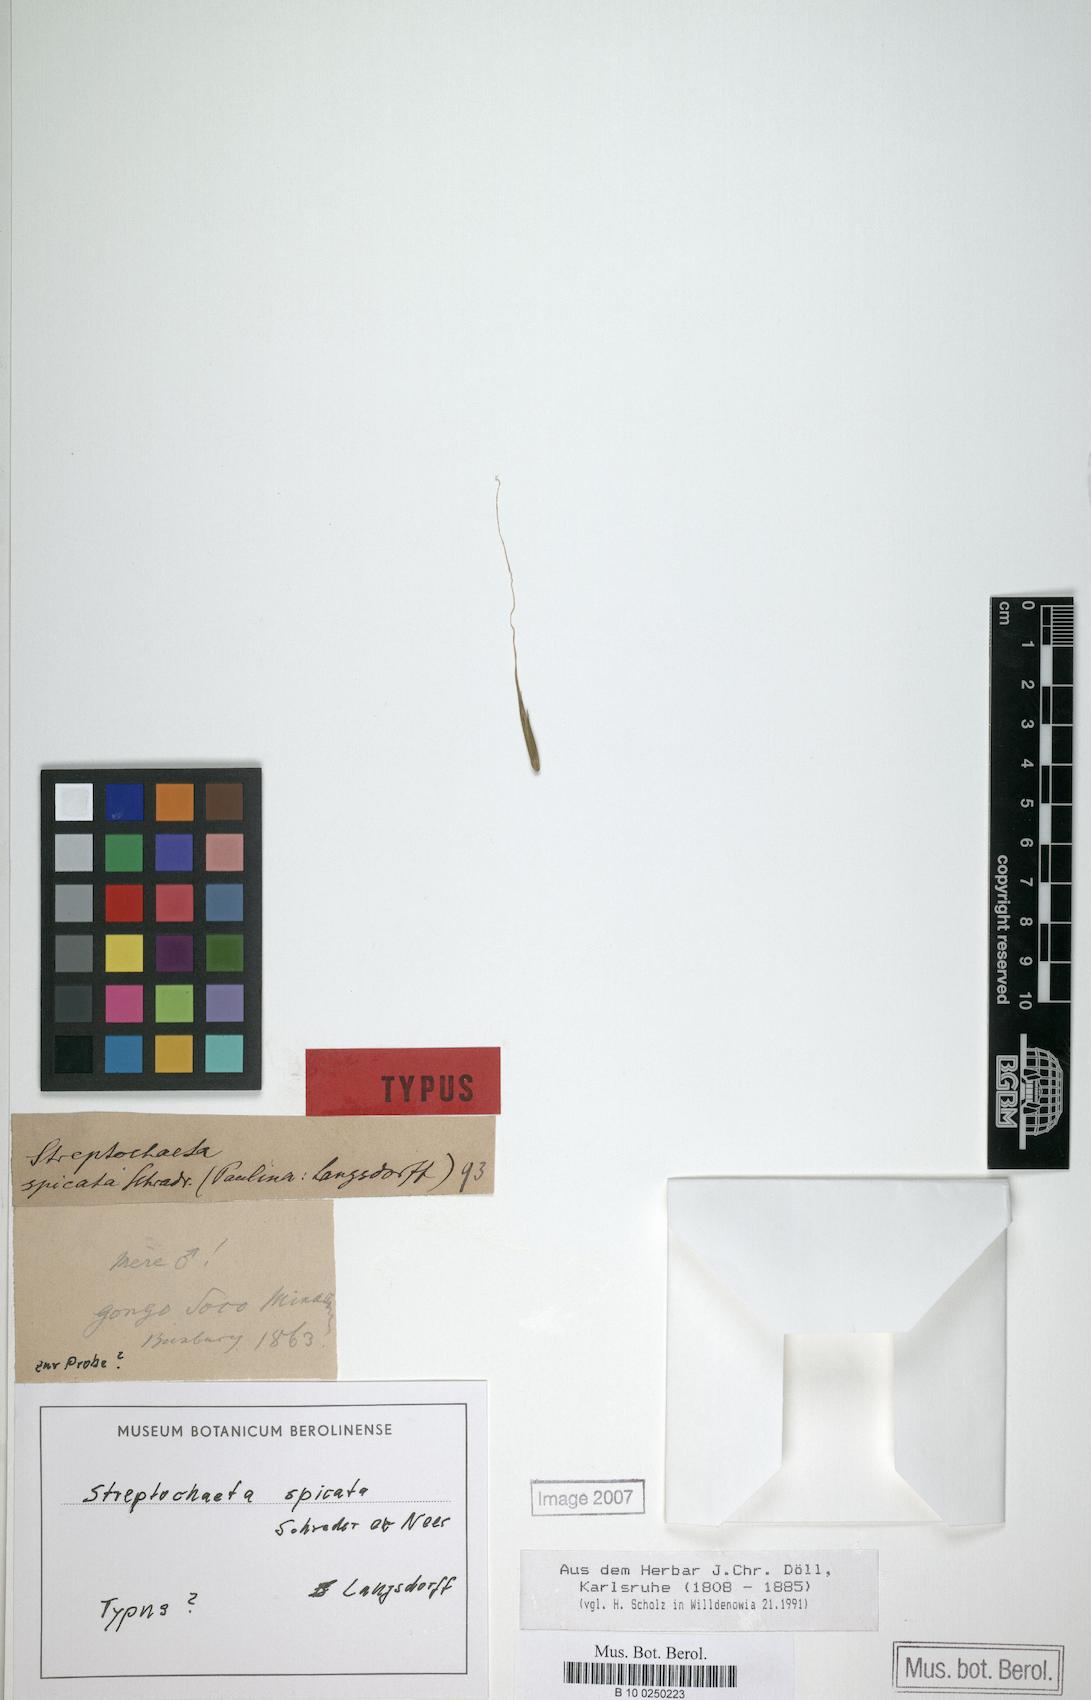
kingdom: Plantae
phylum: Tracheophyta
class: Liliopsida
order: Poales
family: Poaceae
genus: Streptochaeta
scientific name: Streptochaeta spicata
